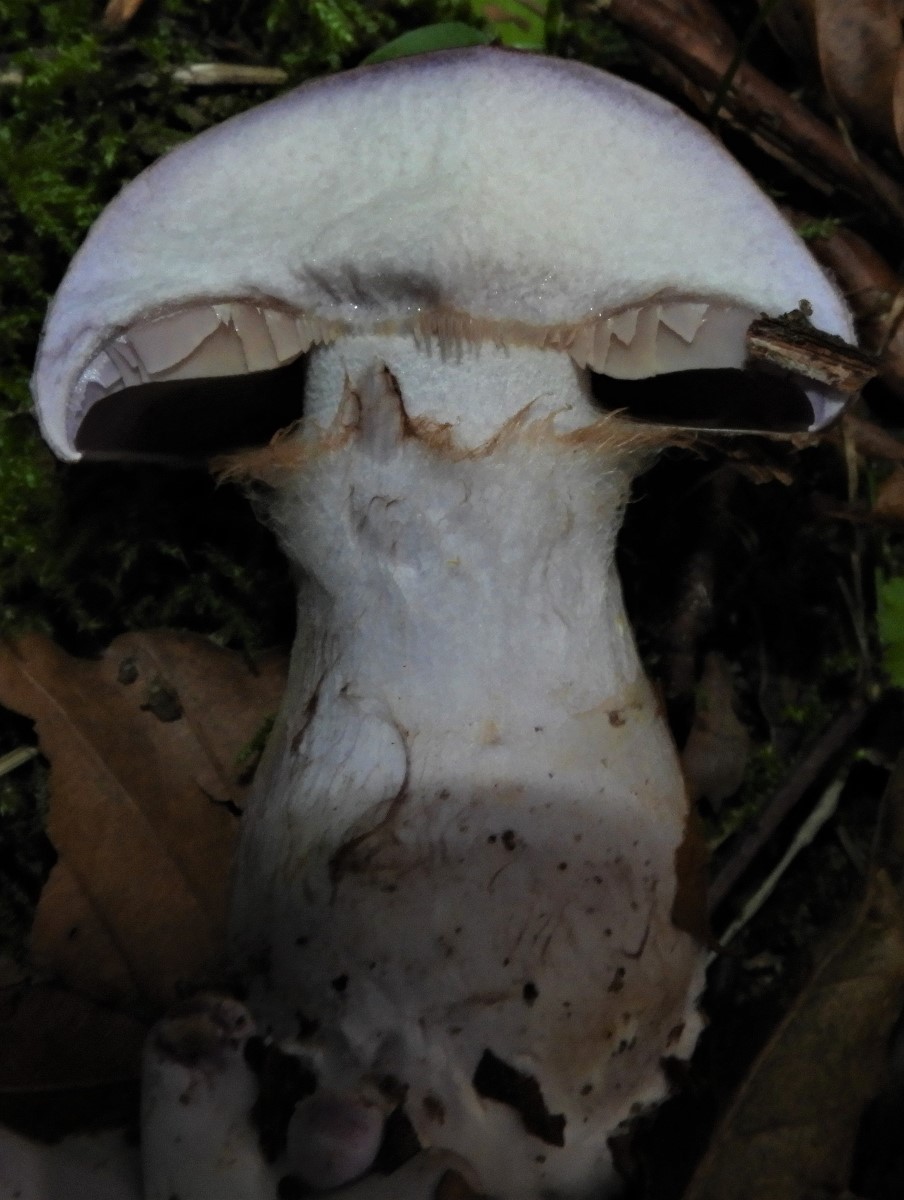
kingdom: Fungi
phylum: Basidiomycota
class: Agaricomycetes
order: Agaricales
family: Cortinariaceae
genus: Cortinarius
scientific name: Cortinarius largus
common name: violetrandet slørhat
